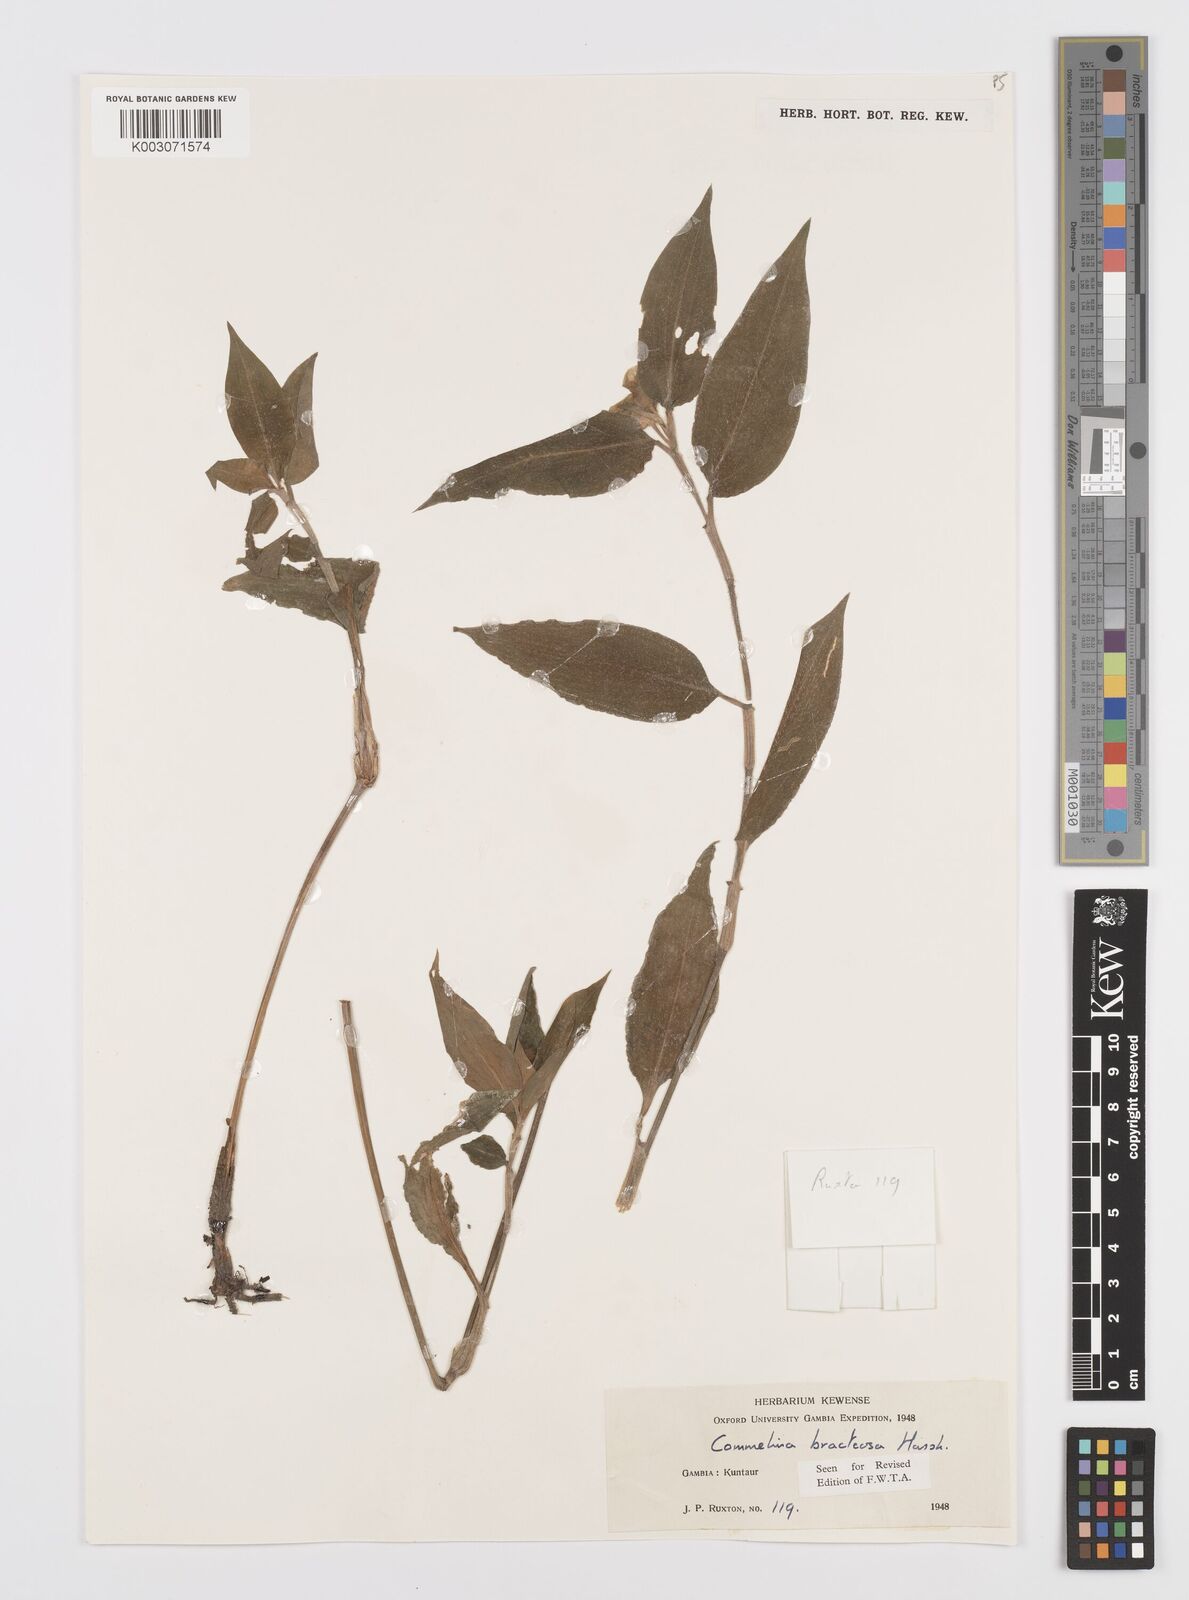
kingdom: Plantae
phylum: Tracheophyta
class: Liliopsida
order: Commelinales
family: Commelinaceae
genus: Commelina
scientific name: Commelina bracteosa
